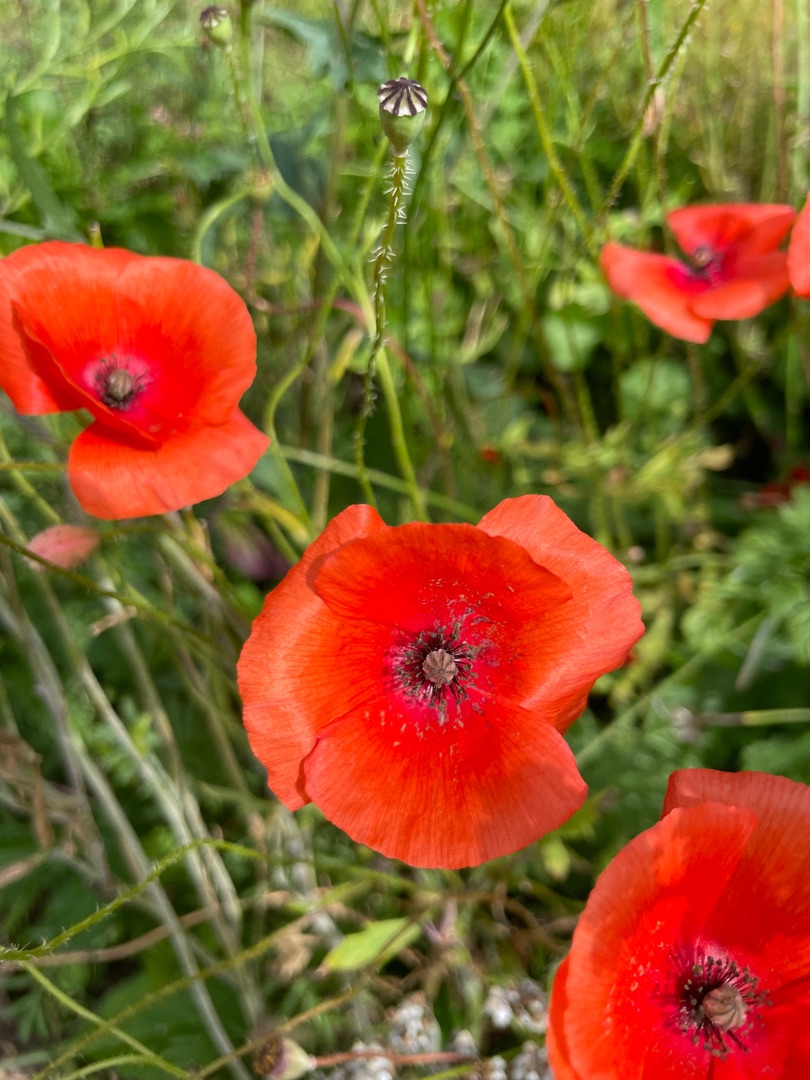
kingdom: Plantae
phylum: Tracheophyta
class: Magnoliopsida
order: Ranunculales
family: Papaveraceae
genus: Papaver
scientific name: Papaver rhoeas
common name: Korn-valmue
